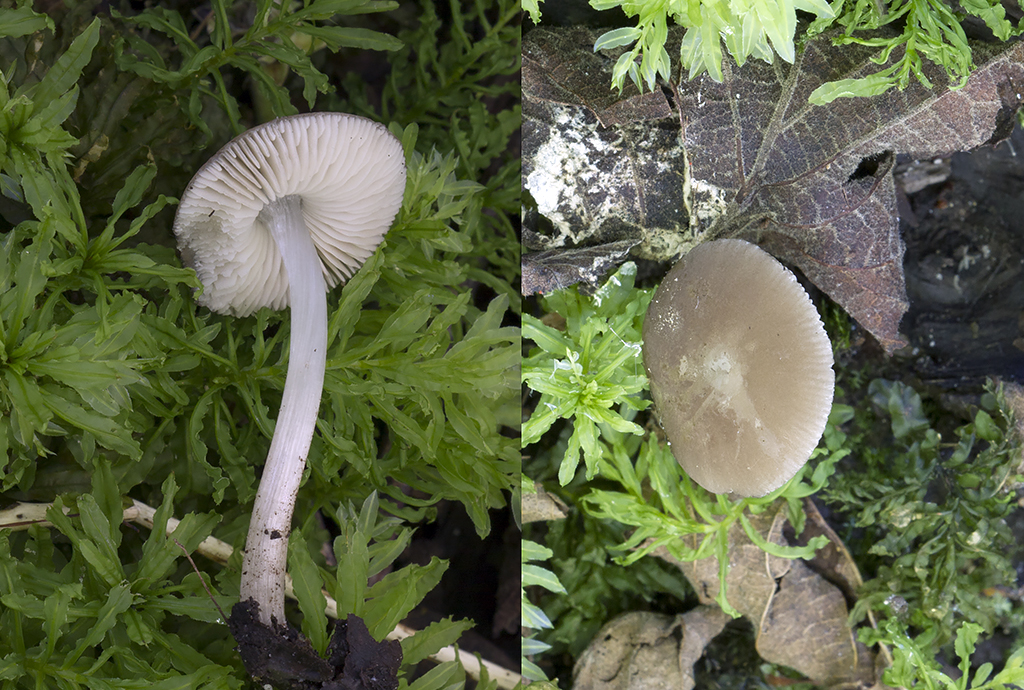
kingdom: Fungi
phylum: Basidiomycota
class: Agaricomycetes
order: Agaricales
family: Pluteaceae
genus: Pluteus
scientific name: Pluteus
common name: pudret skærmhat
